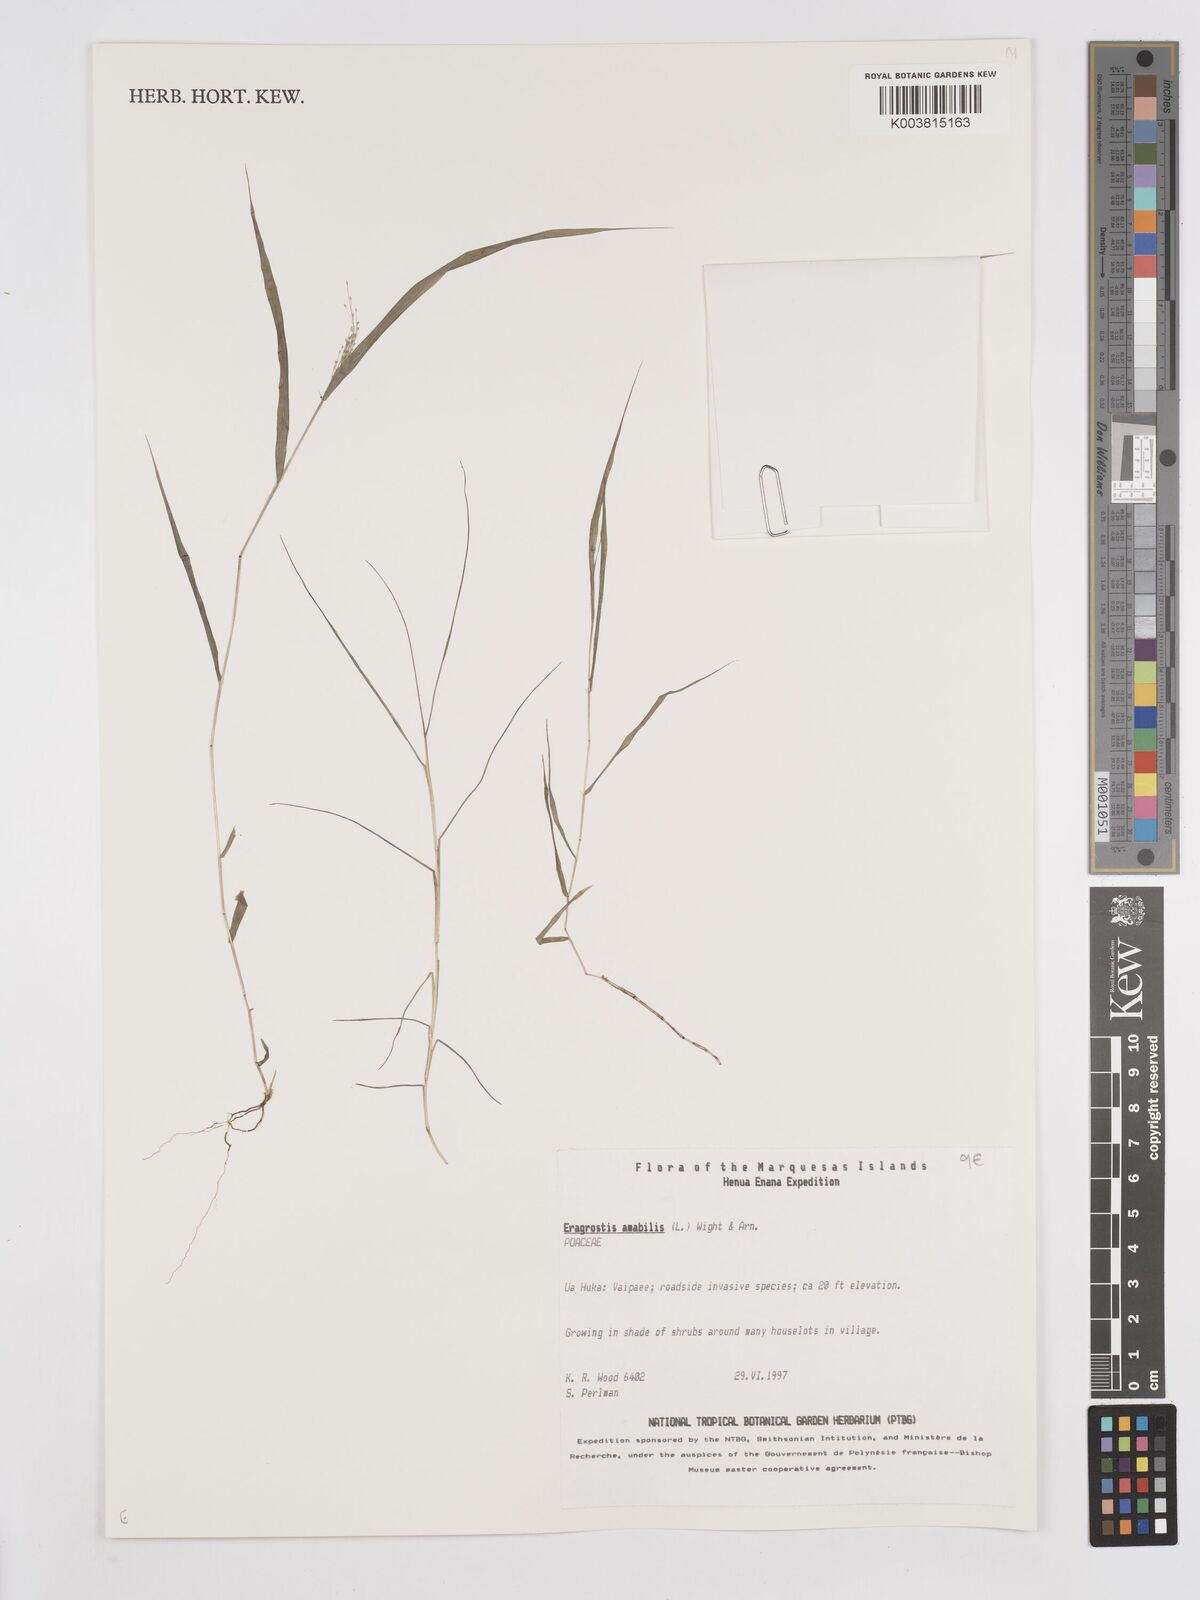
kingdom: Plantae
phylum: Tracheophyta
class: Liliopsida
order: Poales
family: Poaceae
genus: Eragrostis
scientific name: Eragrostis tenella
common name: Japanese lovegrass
